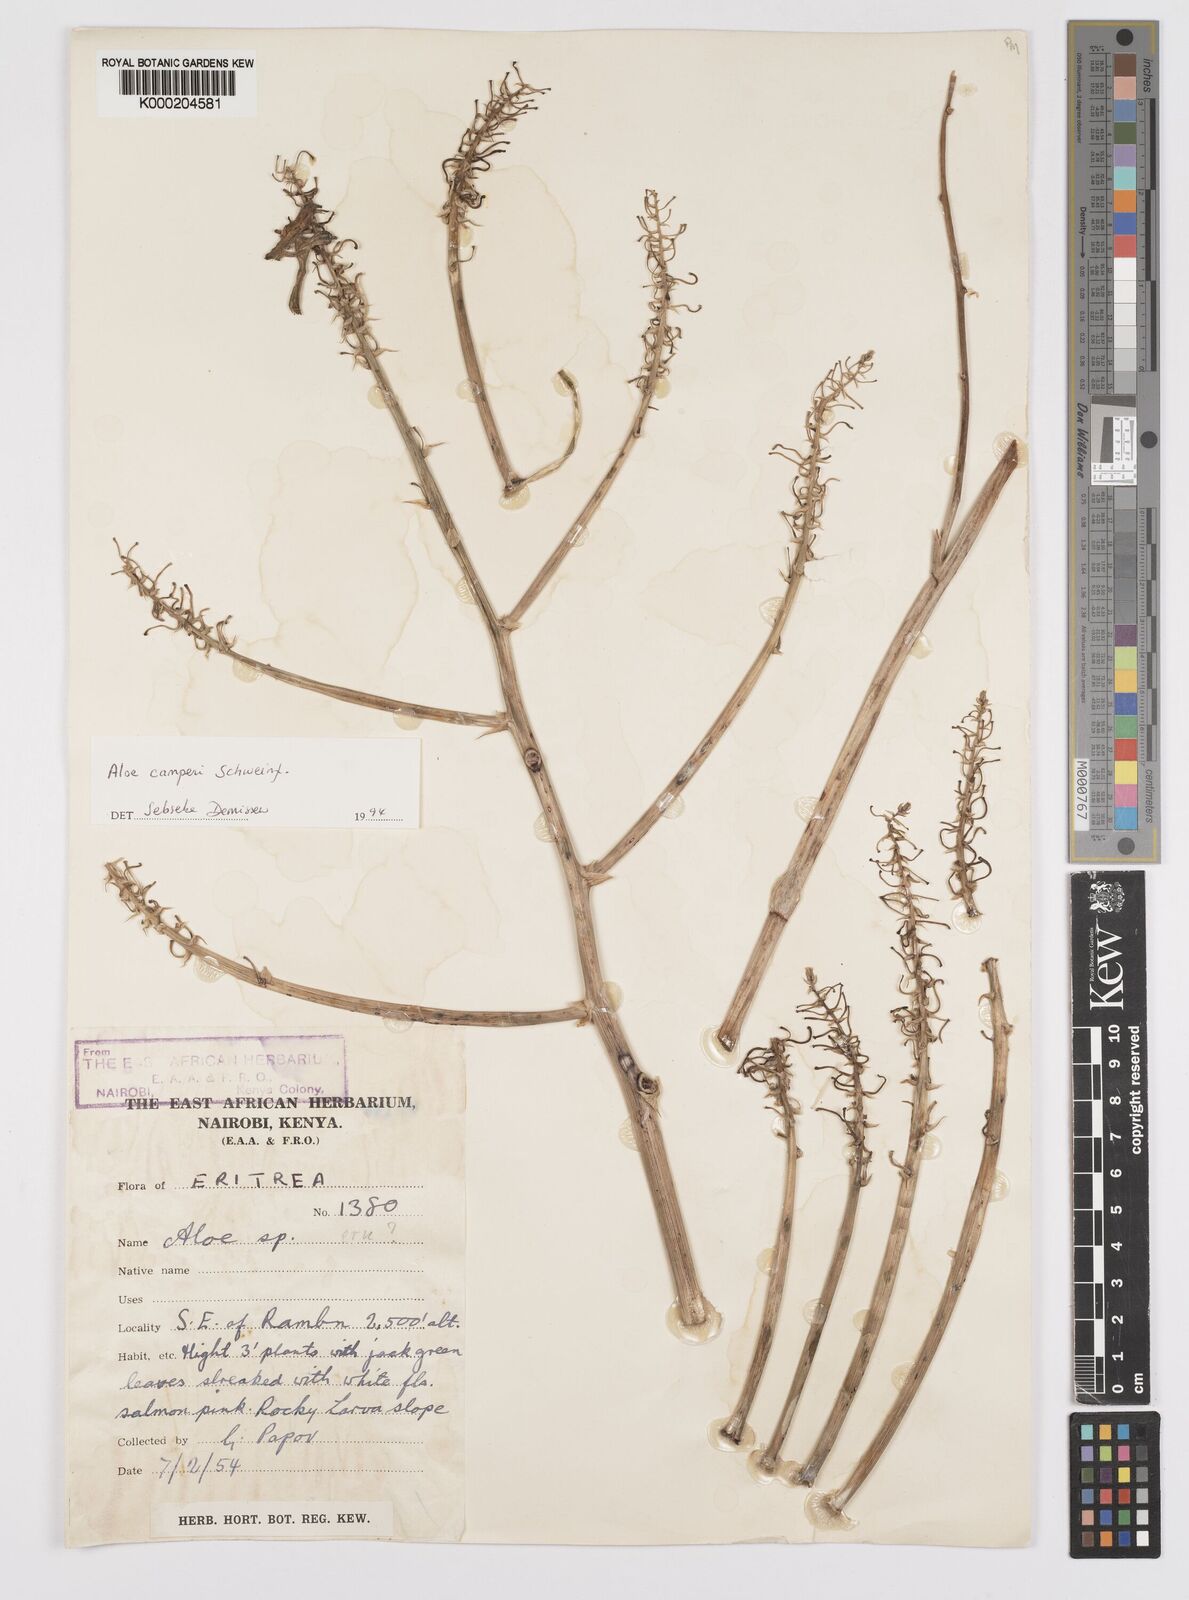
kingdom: Plantae
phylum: Tracheophyta
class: Liliopsida
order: Asparagales
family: Asphodelaceae
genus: Aloe
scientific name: Aloe camperi
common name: Camper's aloe
